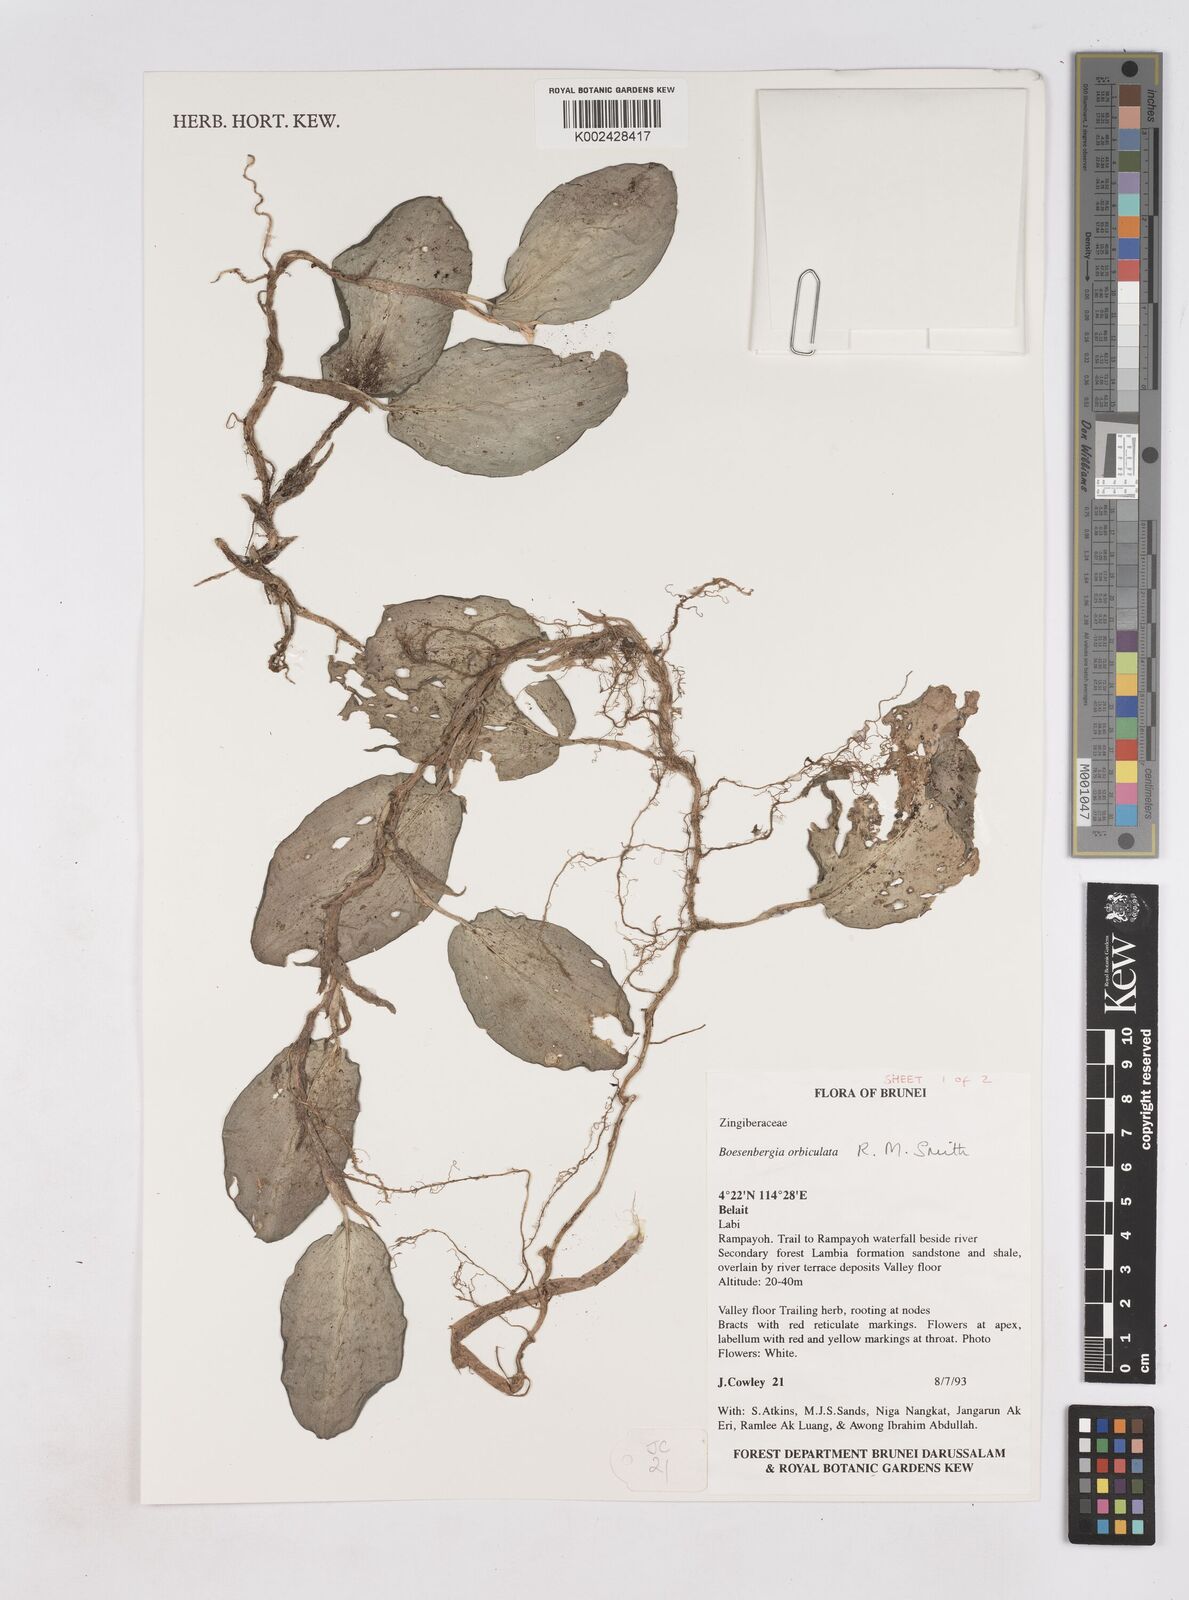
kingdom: Plantae
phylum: Tracheophyta
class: Liliopsida
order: Zingiberales
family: Zingiberaceae
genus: Boesenbergia
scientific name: Boesenbergia orbiculata
